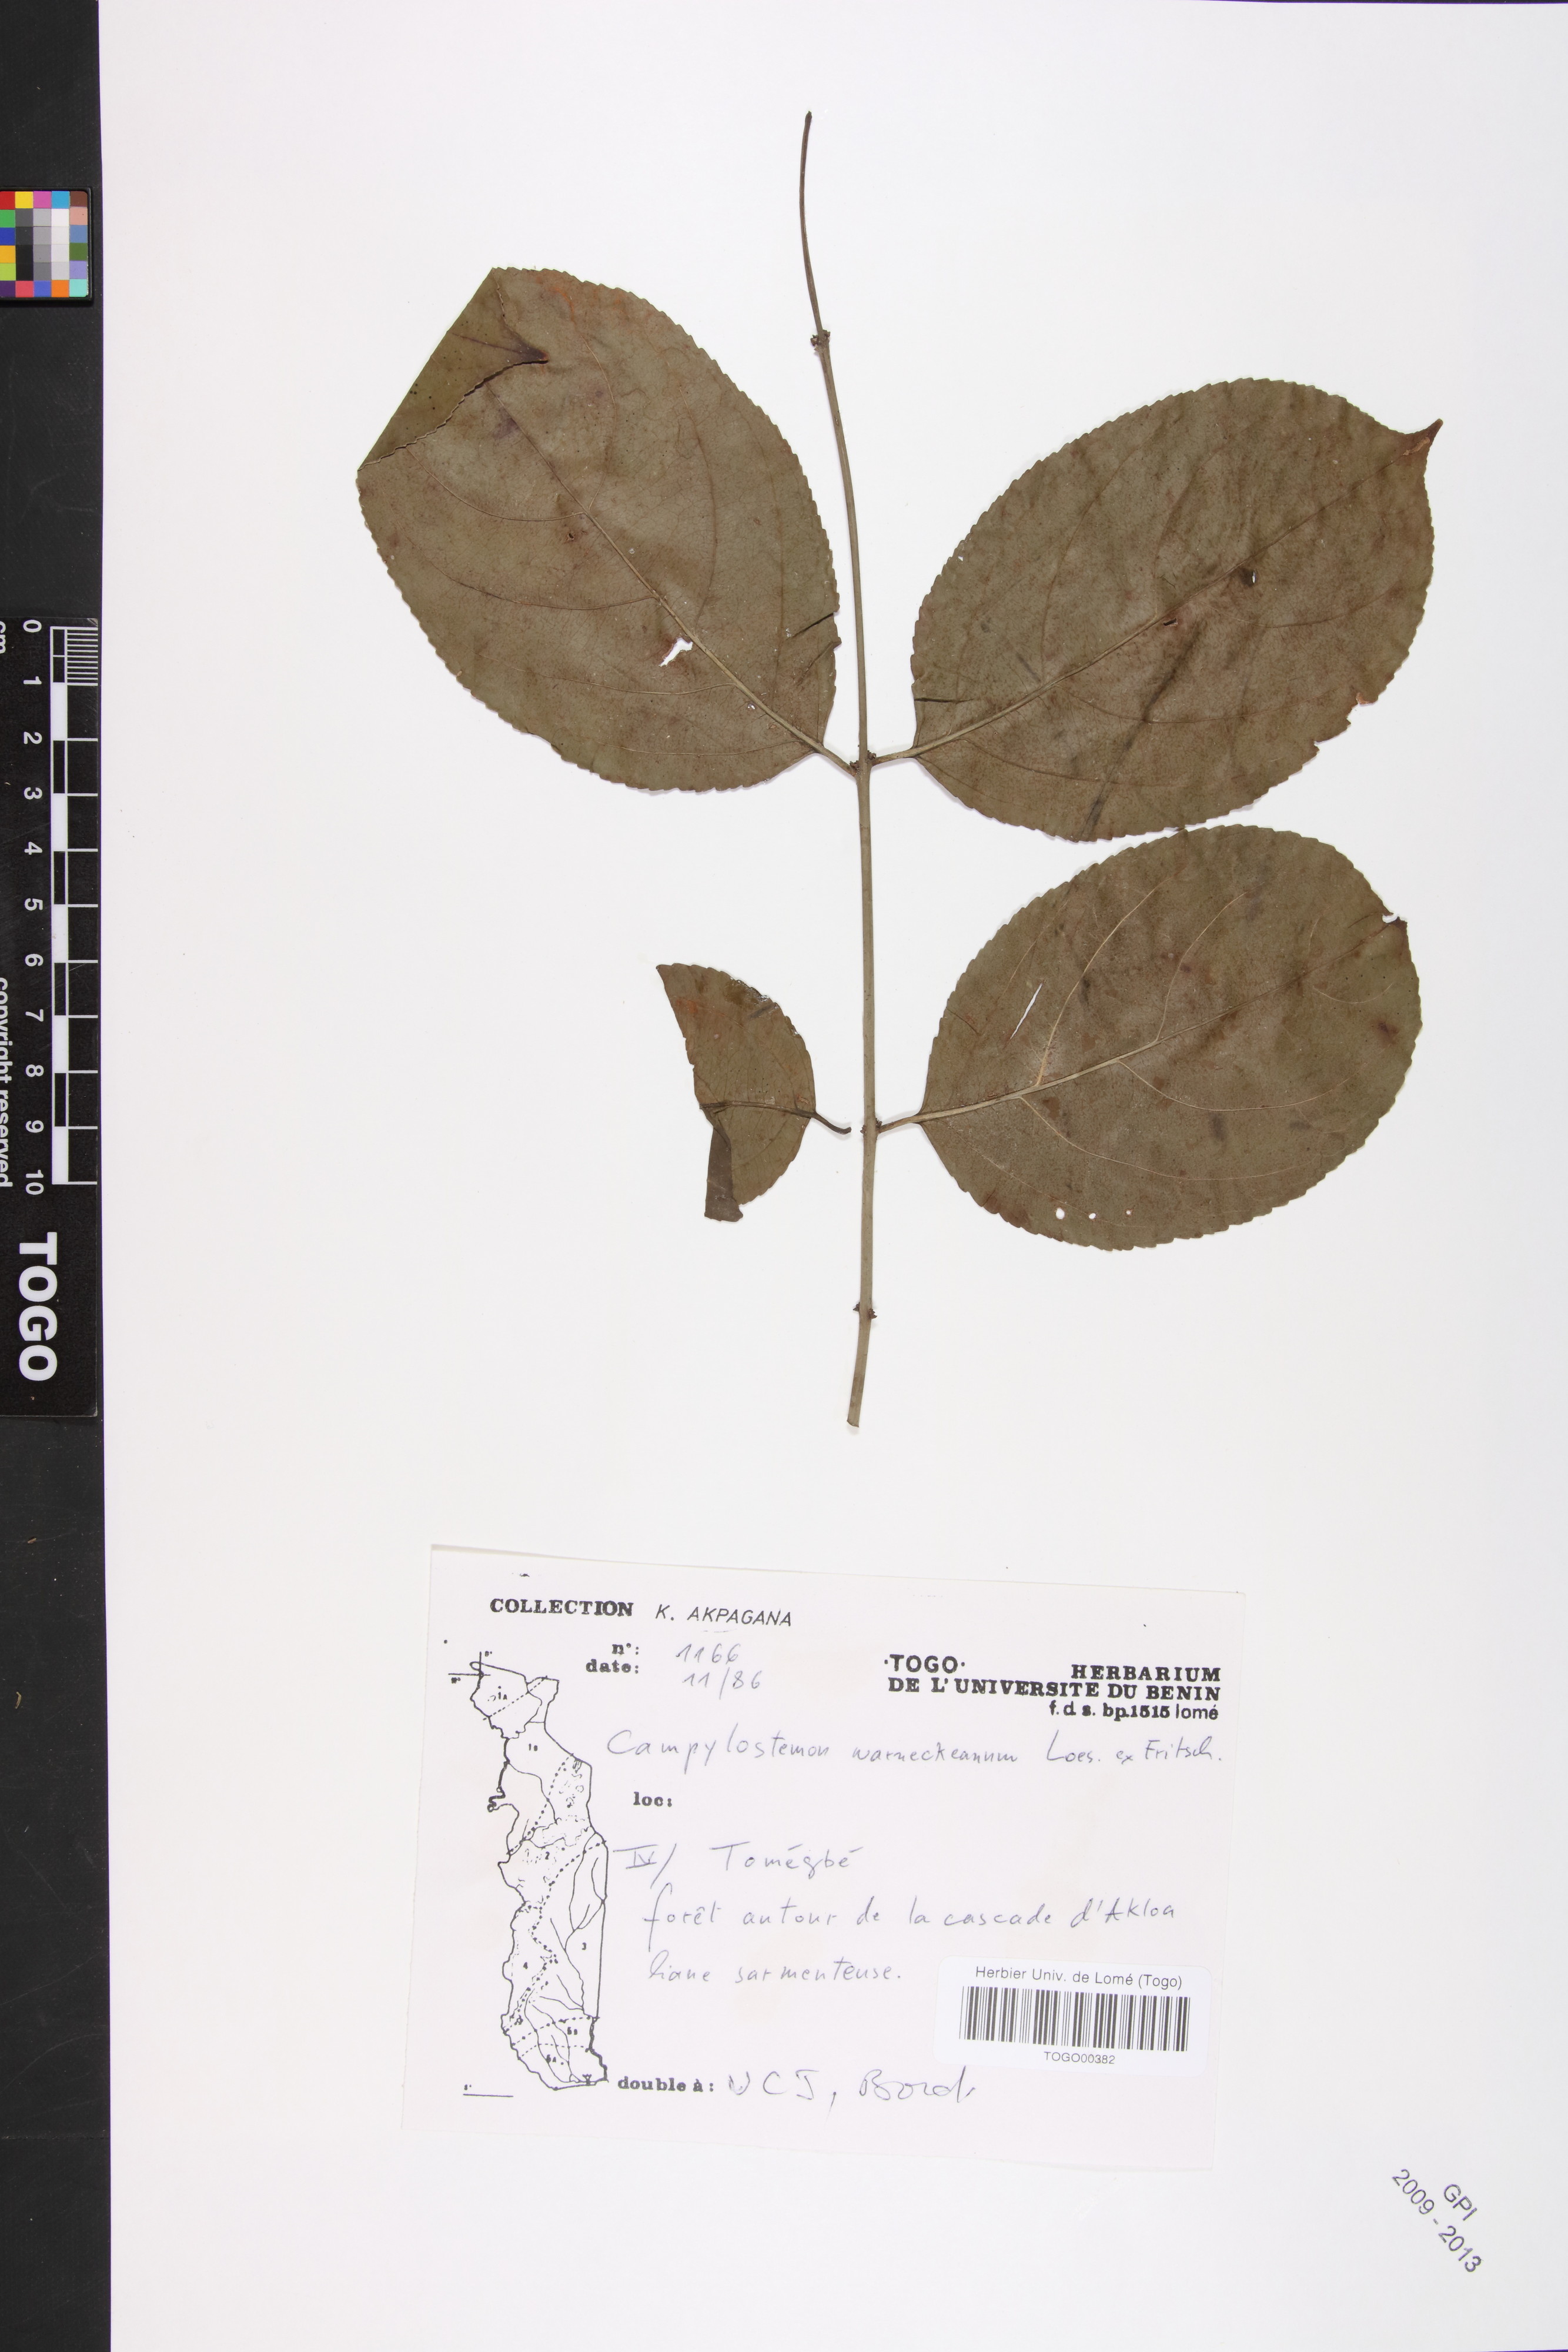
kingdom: Plantae
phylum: Tracheophyta
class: Magnoliopsida
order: Celastrales
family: Celastraceae
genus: Campylostemon
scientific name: Campylostemon warneckeanus
